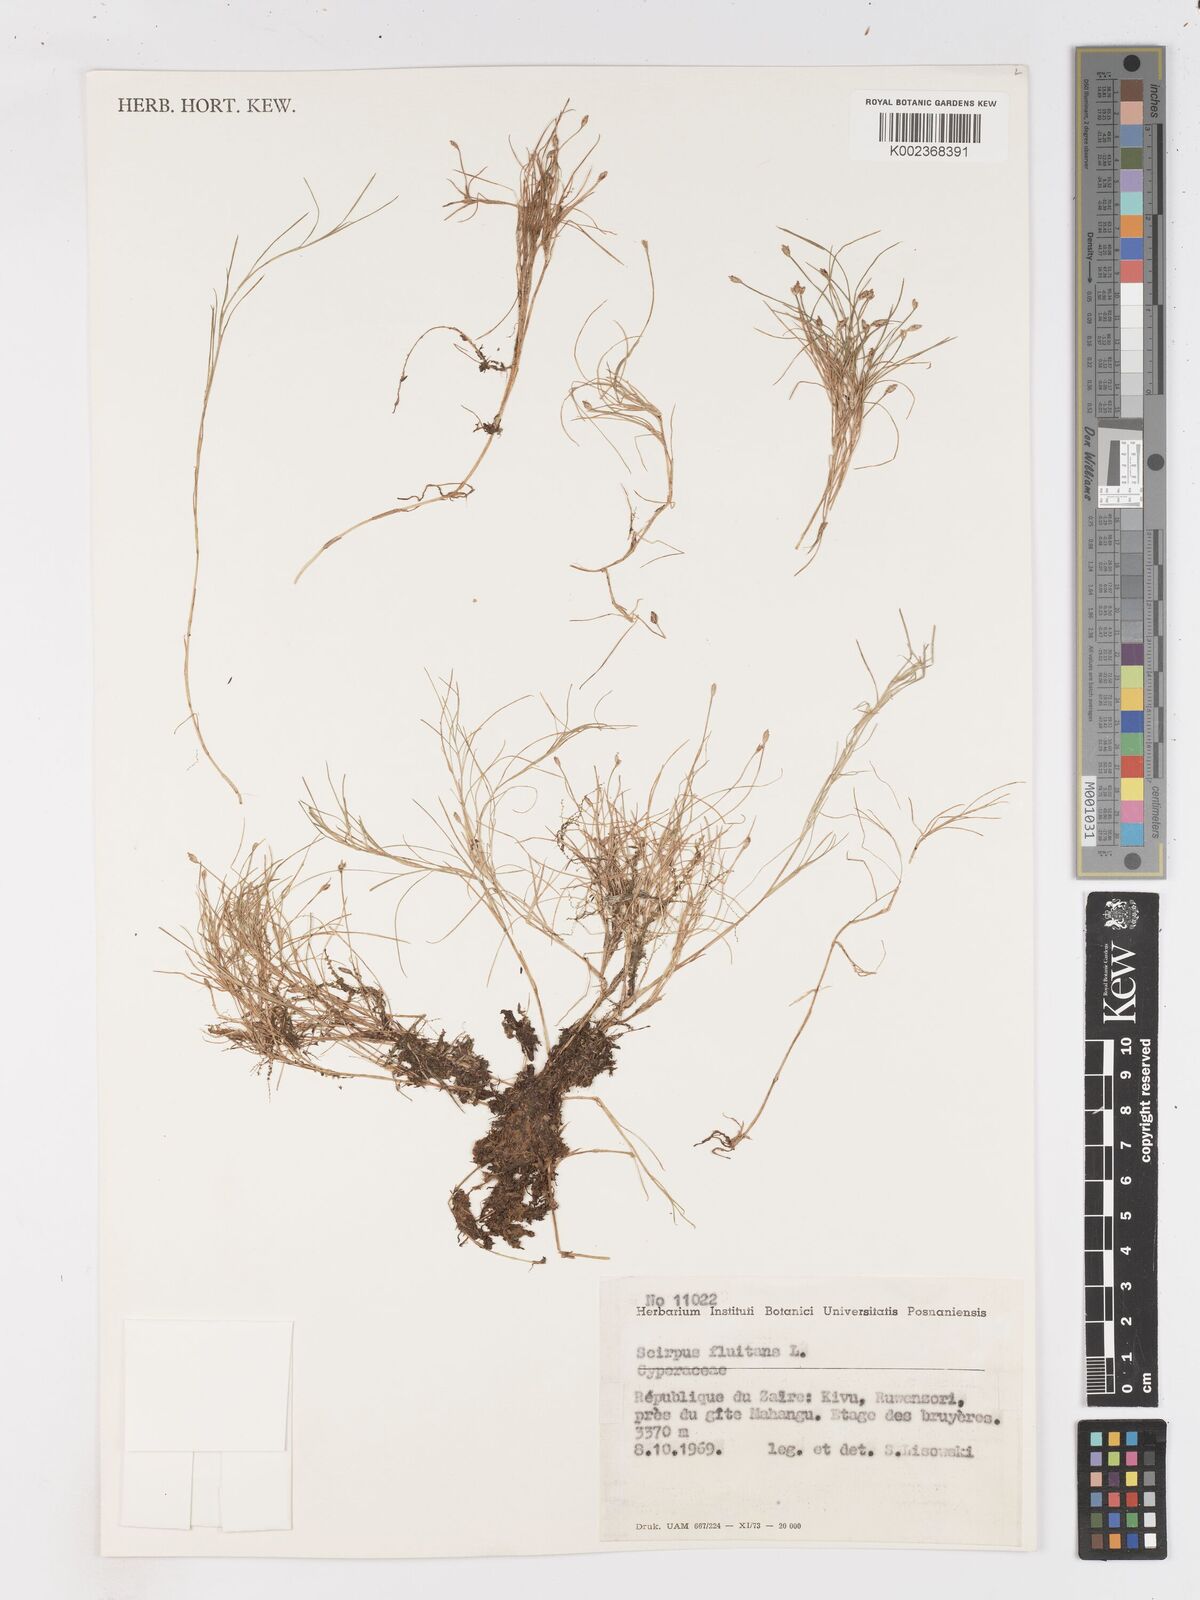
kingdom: Plantae
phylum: Tracheophyta
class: Liliopsida
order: Poales
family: Cyperaceae
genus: Isolepis
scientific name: Isolepis fluitans
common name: Floating club-rush
